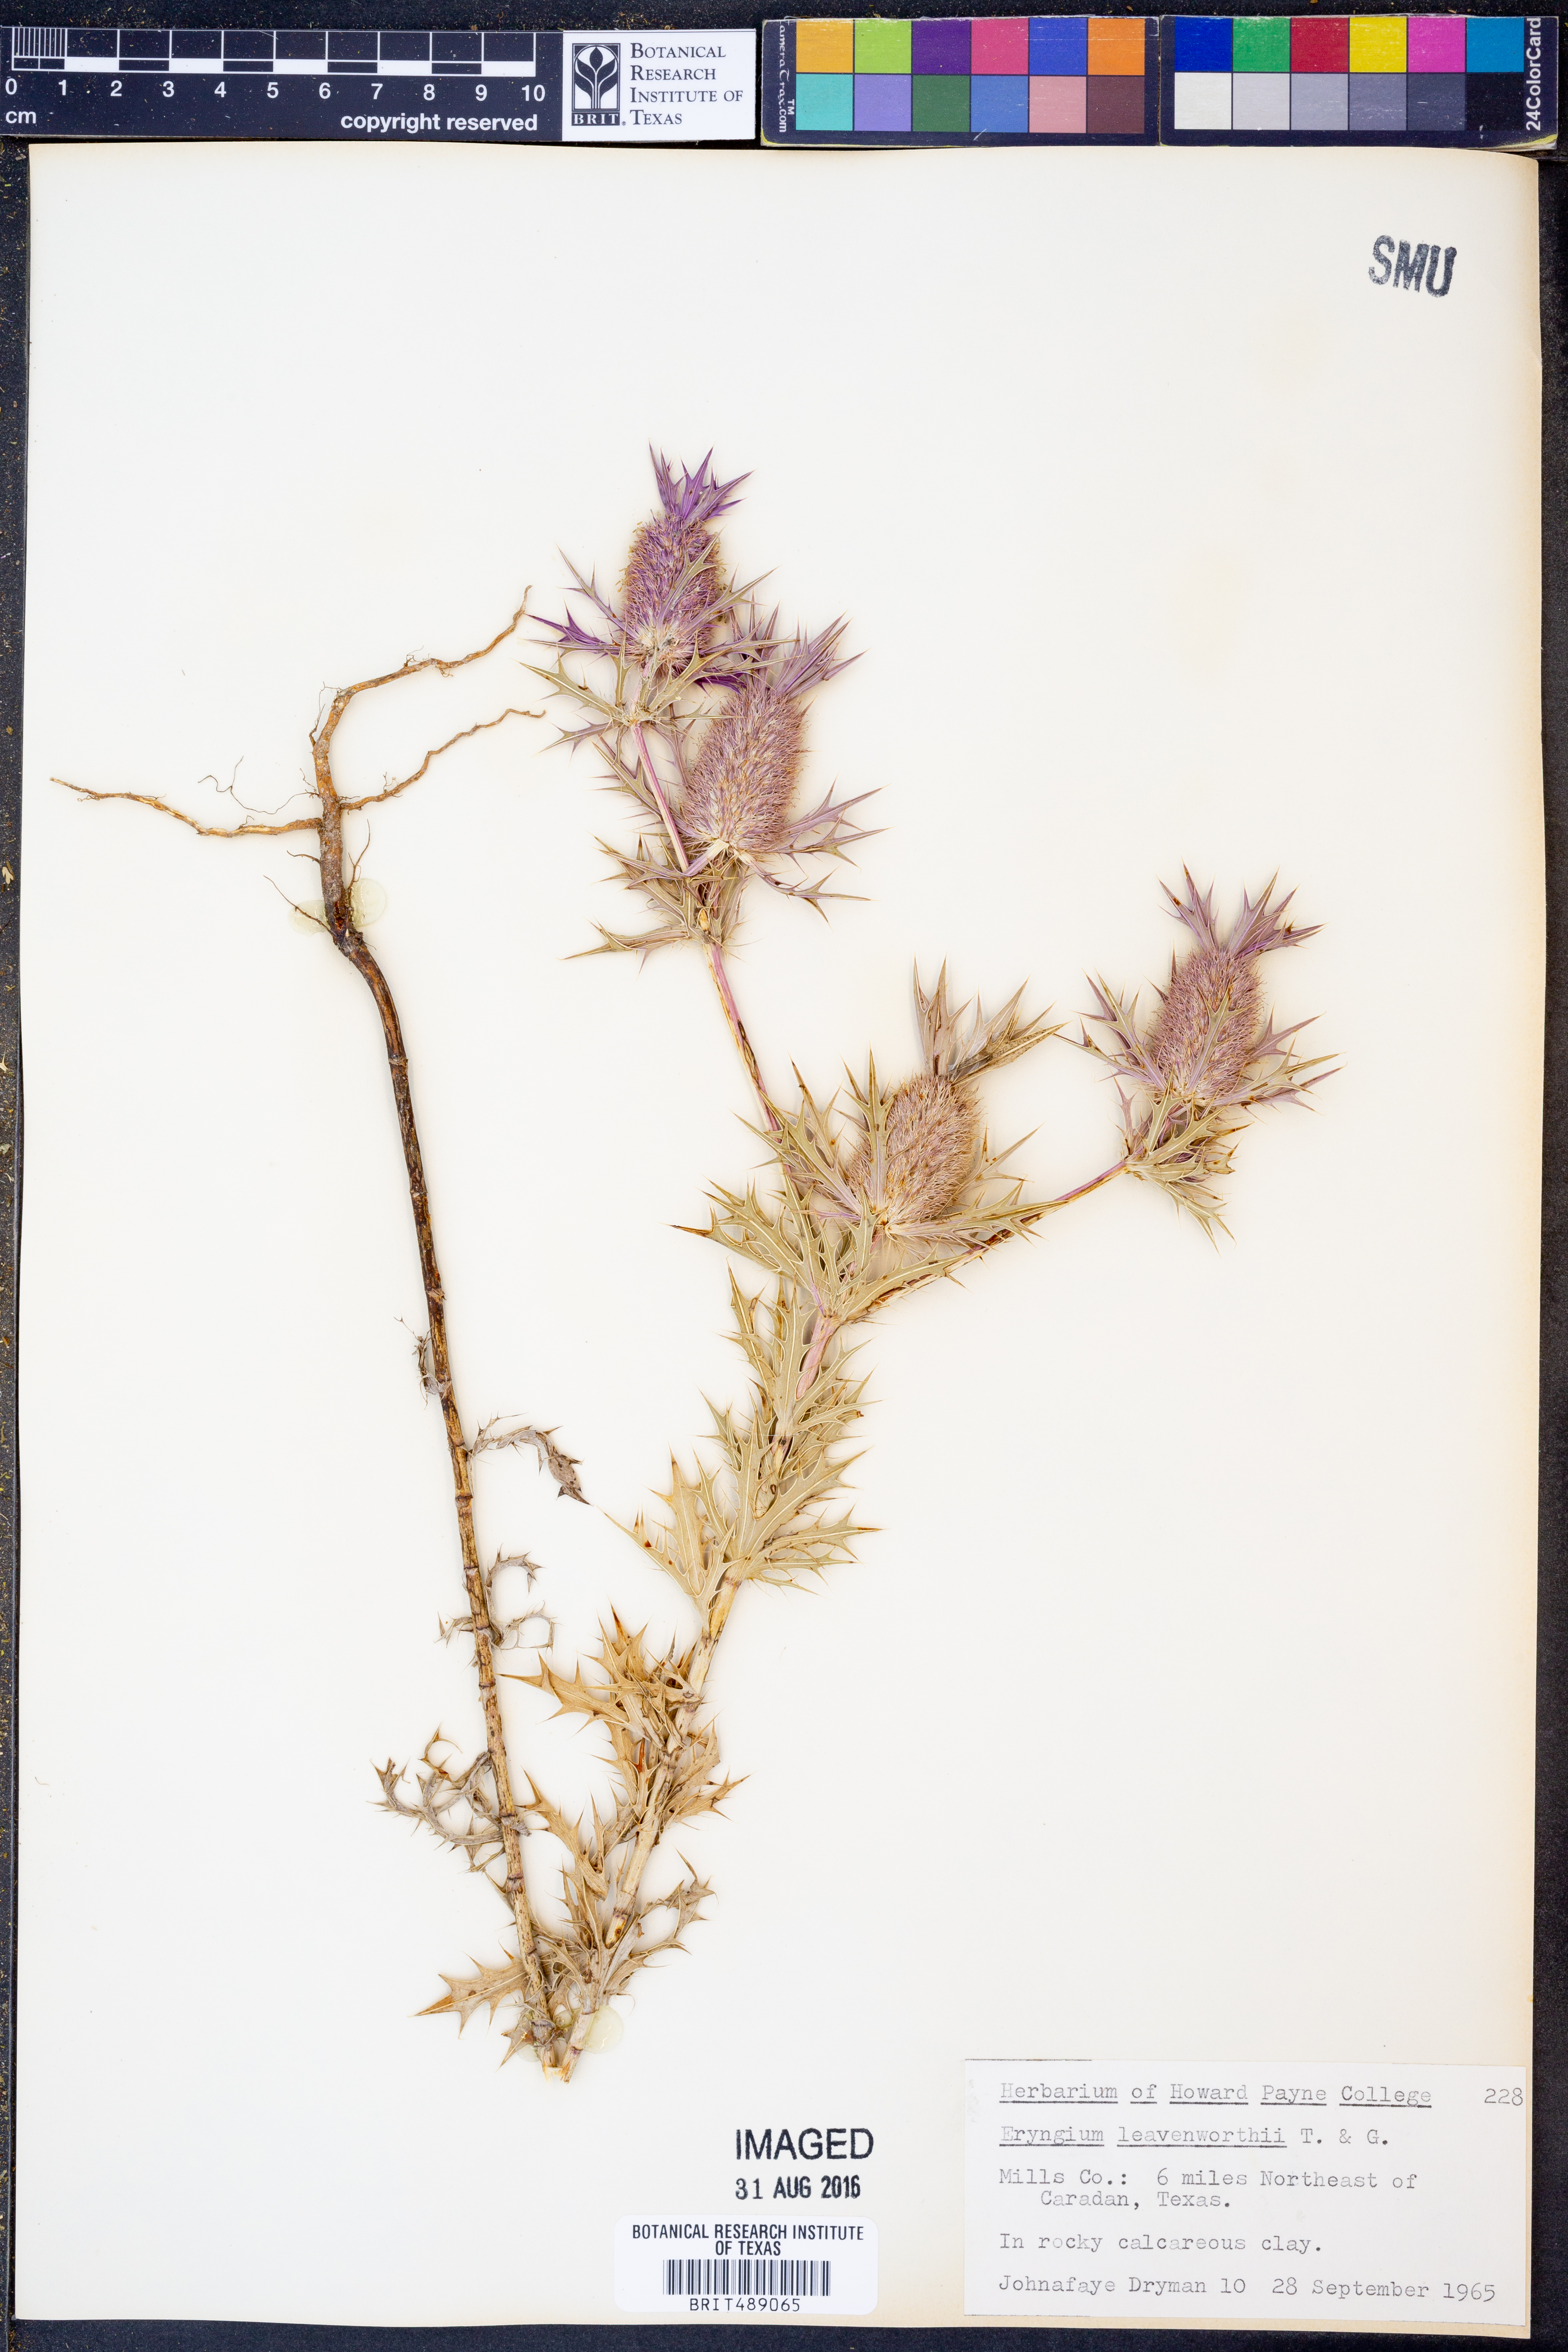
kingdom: Plantae
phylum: Tracheophyta
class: Magnoliopsida
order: Apiales
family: Apiaceae
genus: Eryngium
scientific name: Eryngium leavenworthii
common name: Leavenworth's eryngo
